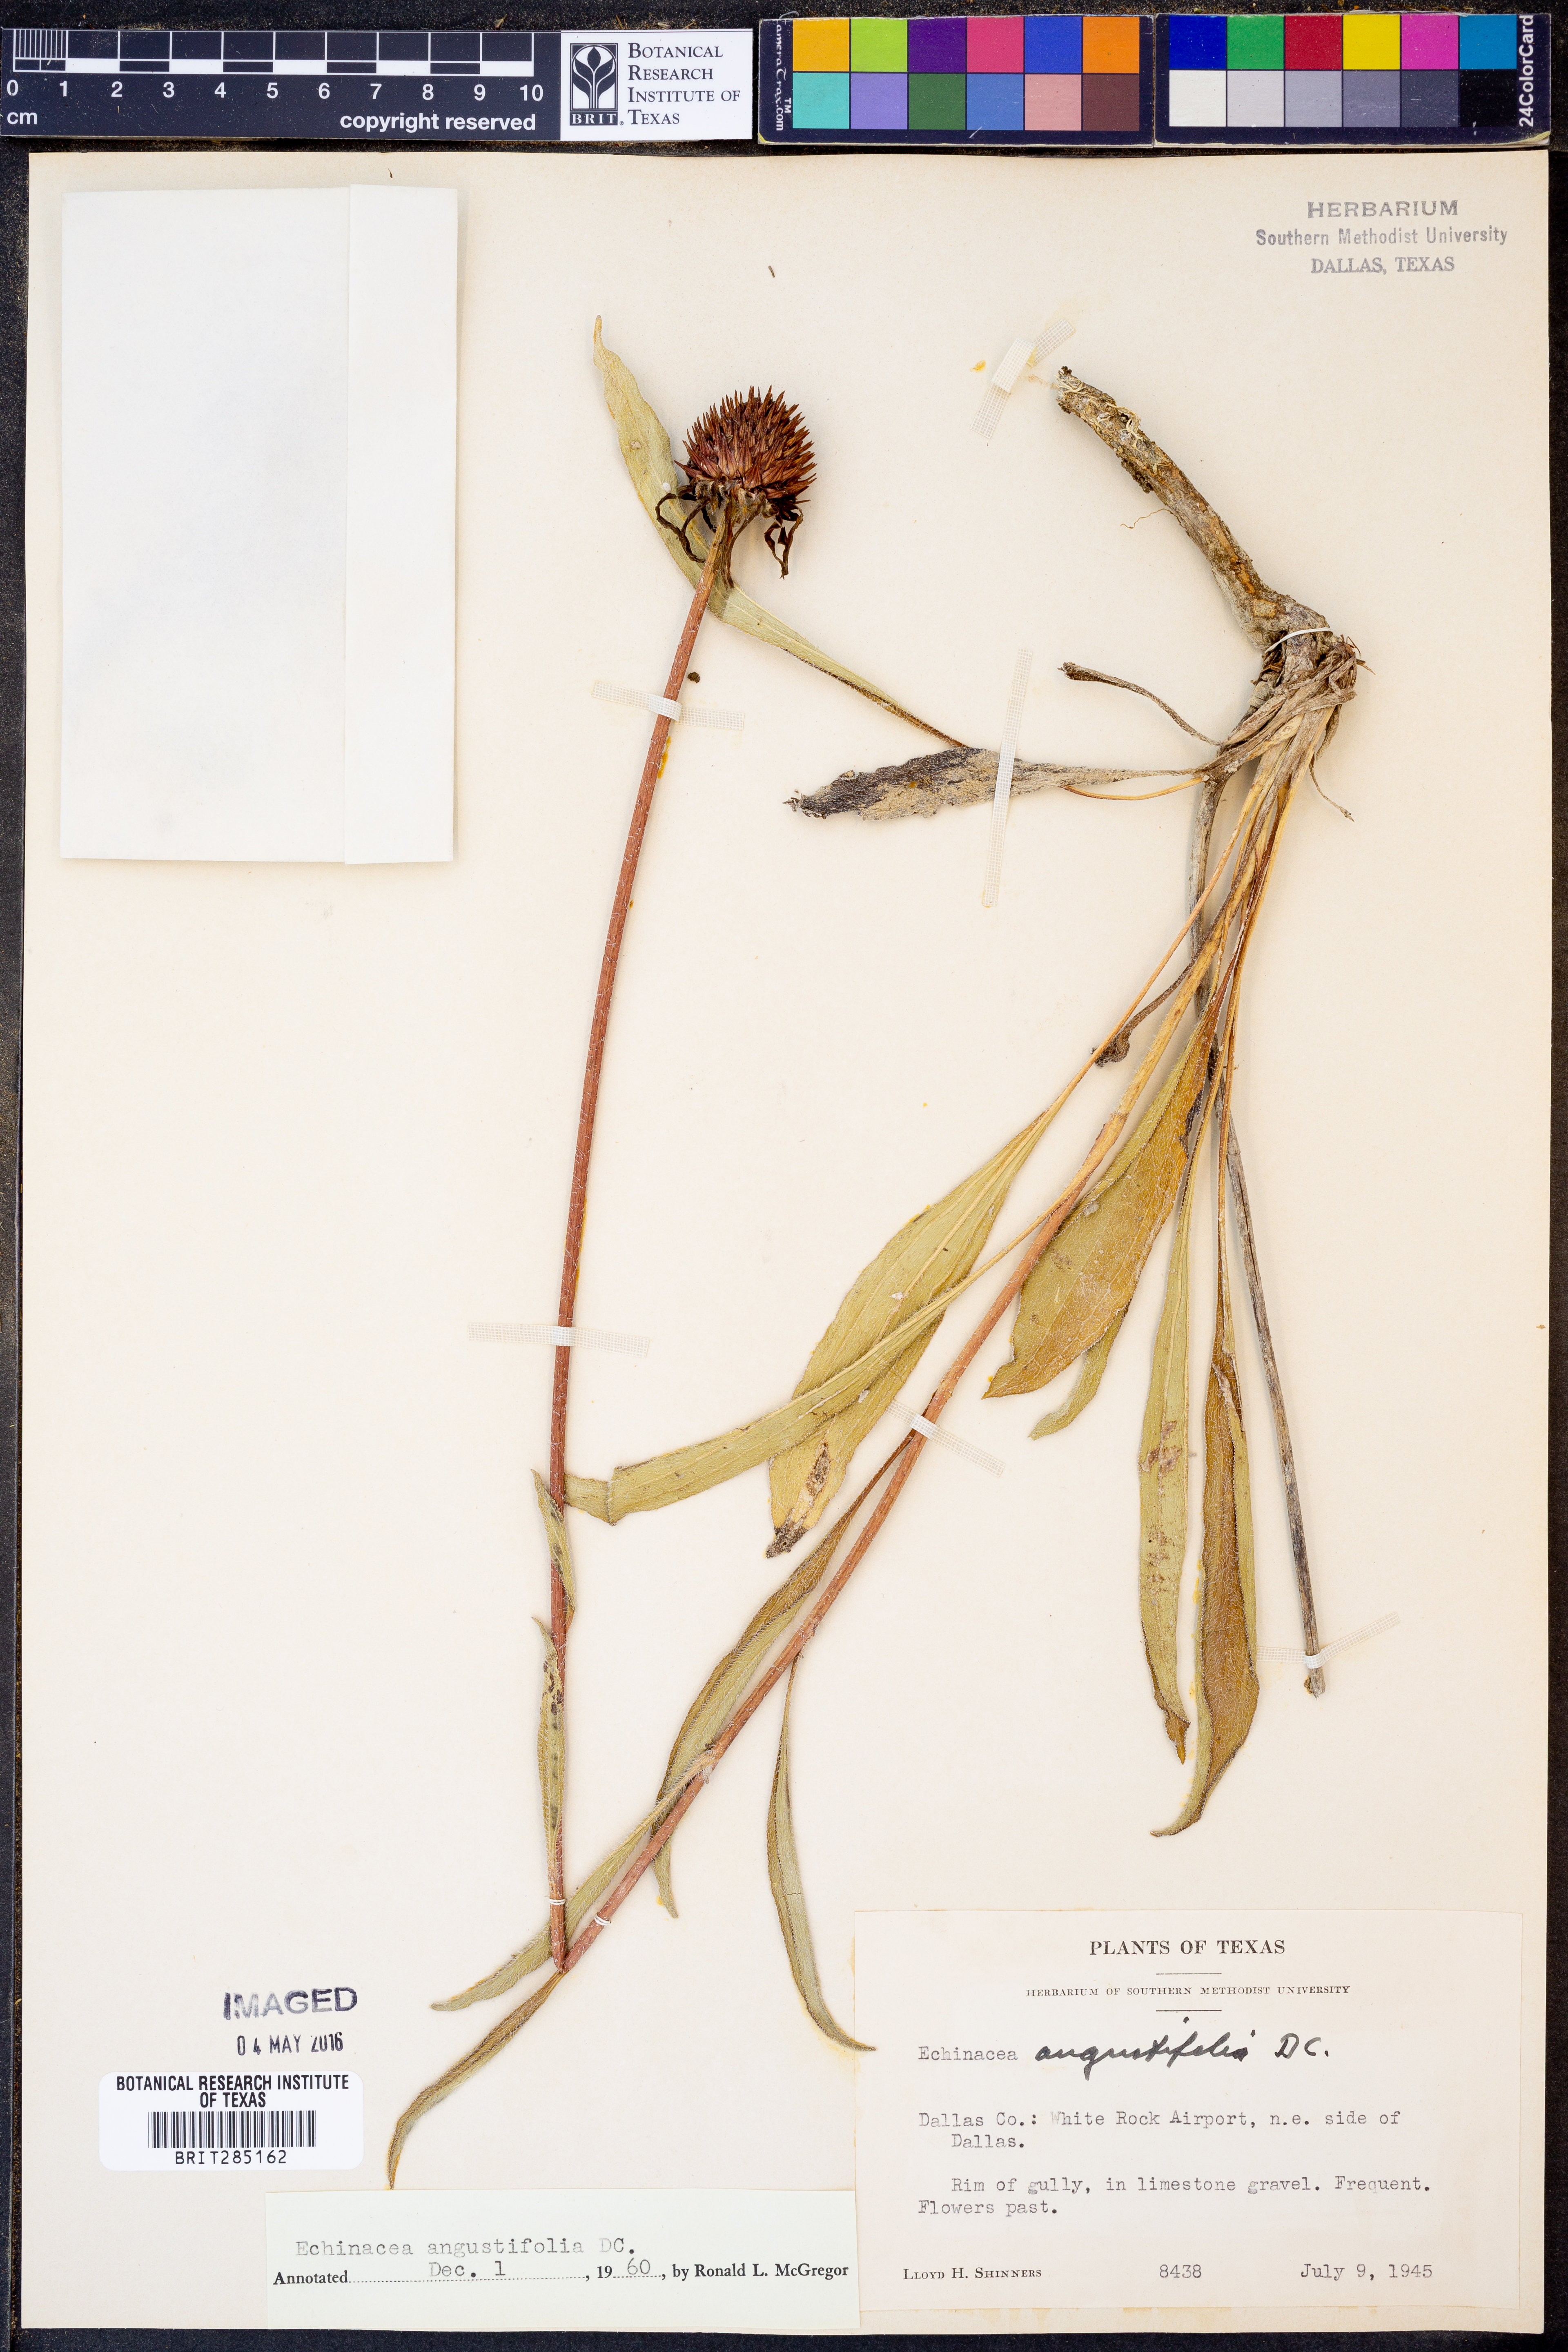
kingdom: Plantae
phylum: Tracheophyta
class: Magnoliopsida
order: Asterales
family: Asteraceae
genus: Echinacea
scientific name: Echinacea angustifolia
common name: Black-sampson echinacea
